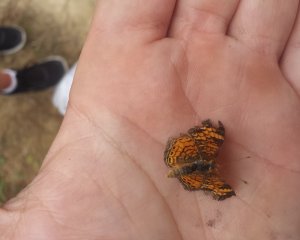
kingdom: Animalia
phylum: Arthropoda
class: Insecta
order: Lepidoptera
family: Nymphalidae
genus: Phyciodes
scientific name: Phyciodes tharos
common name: Pearl Crescent
